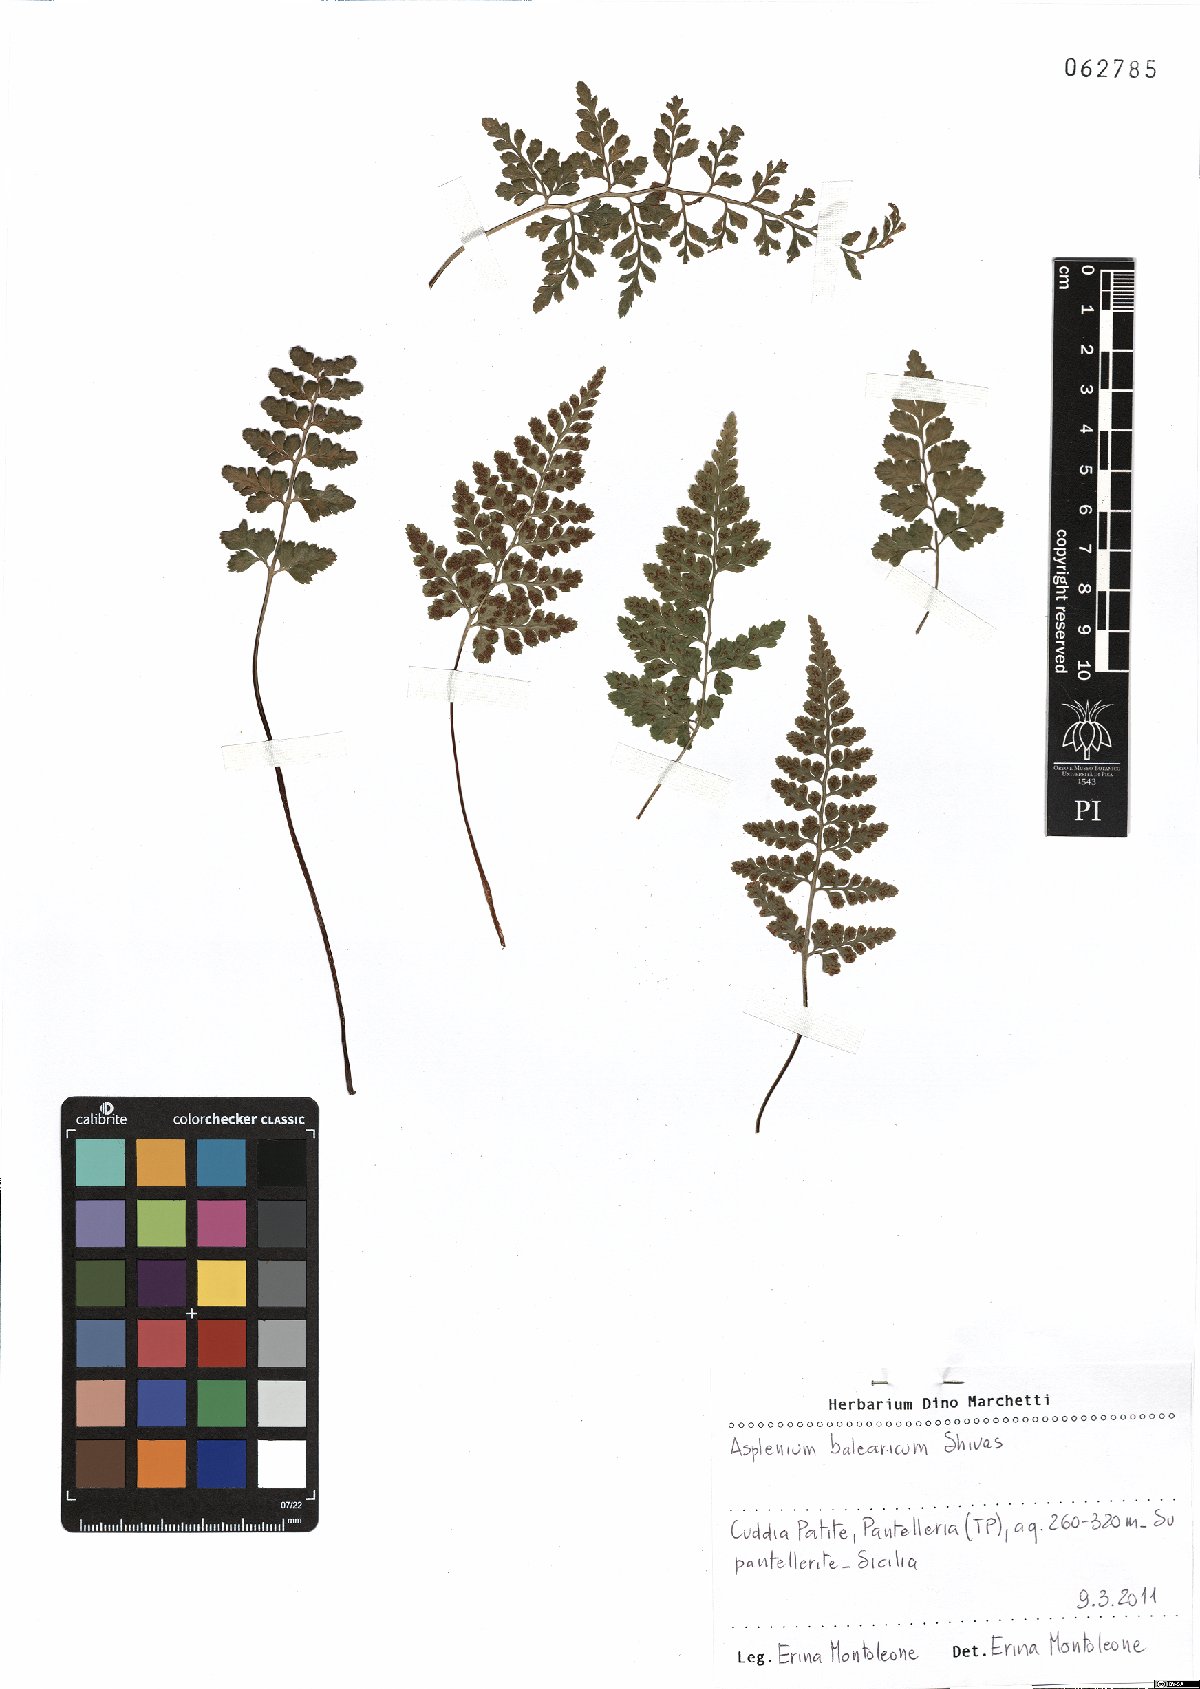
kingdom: Plantae
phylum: Tracheophyta
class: Polypodiopsida
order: Polypodiales
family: Aspleniaceae
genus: Asplenium
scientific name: Asplenium balearicum
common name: Balearean spleenwort
